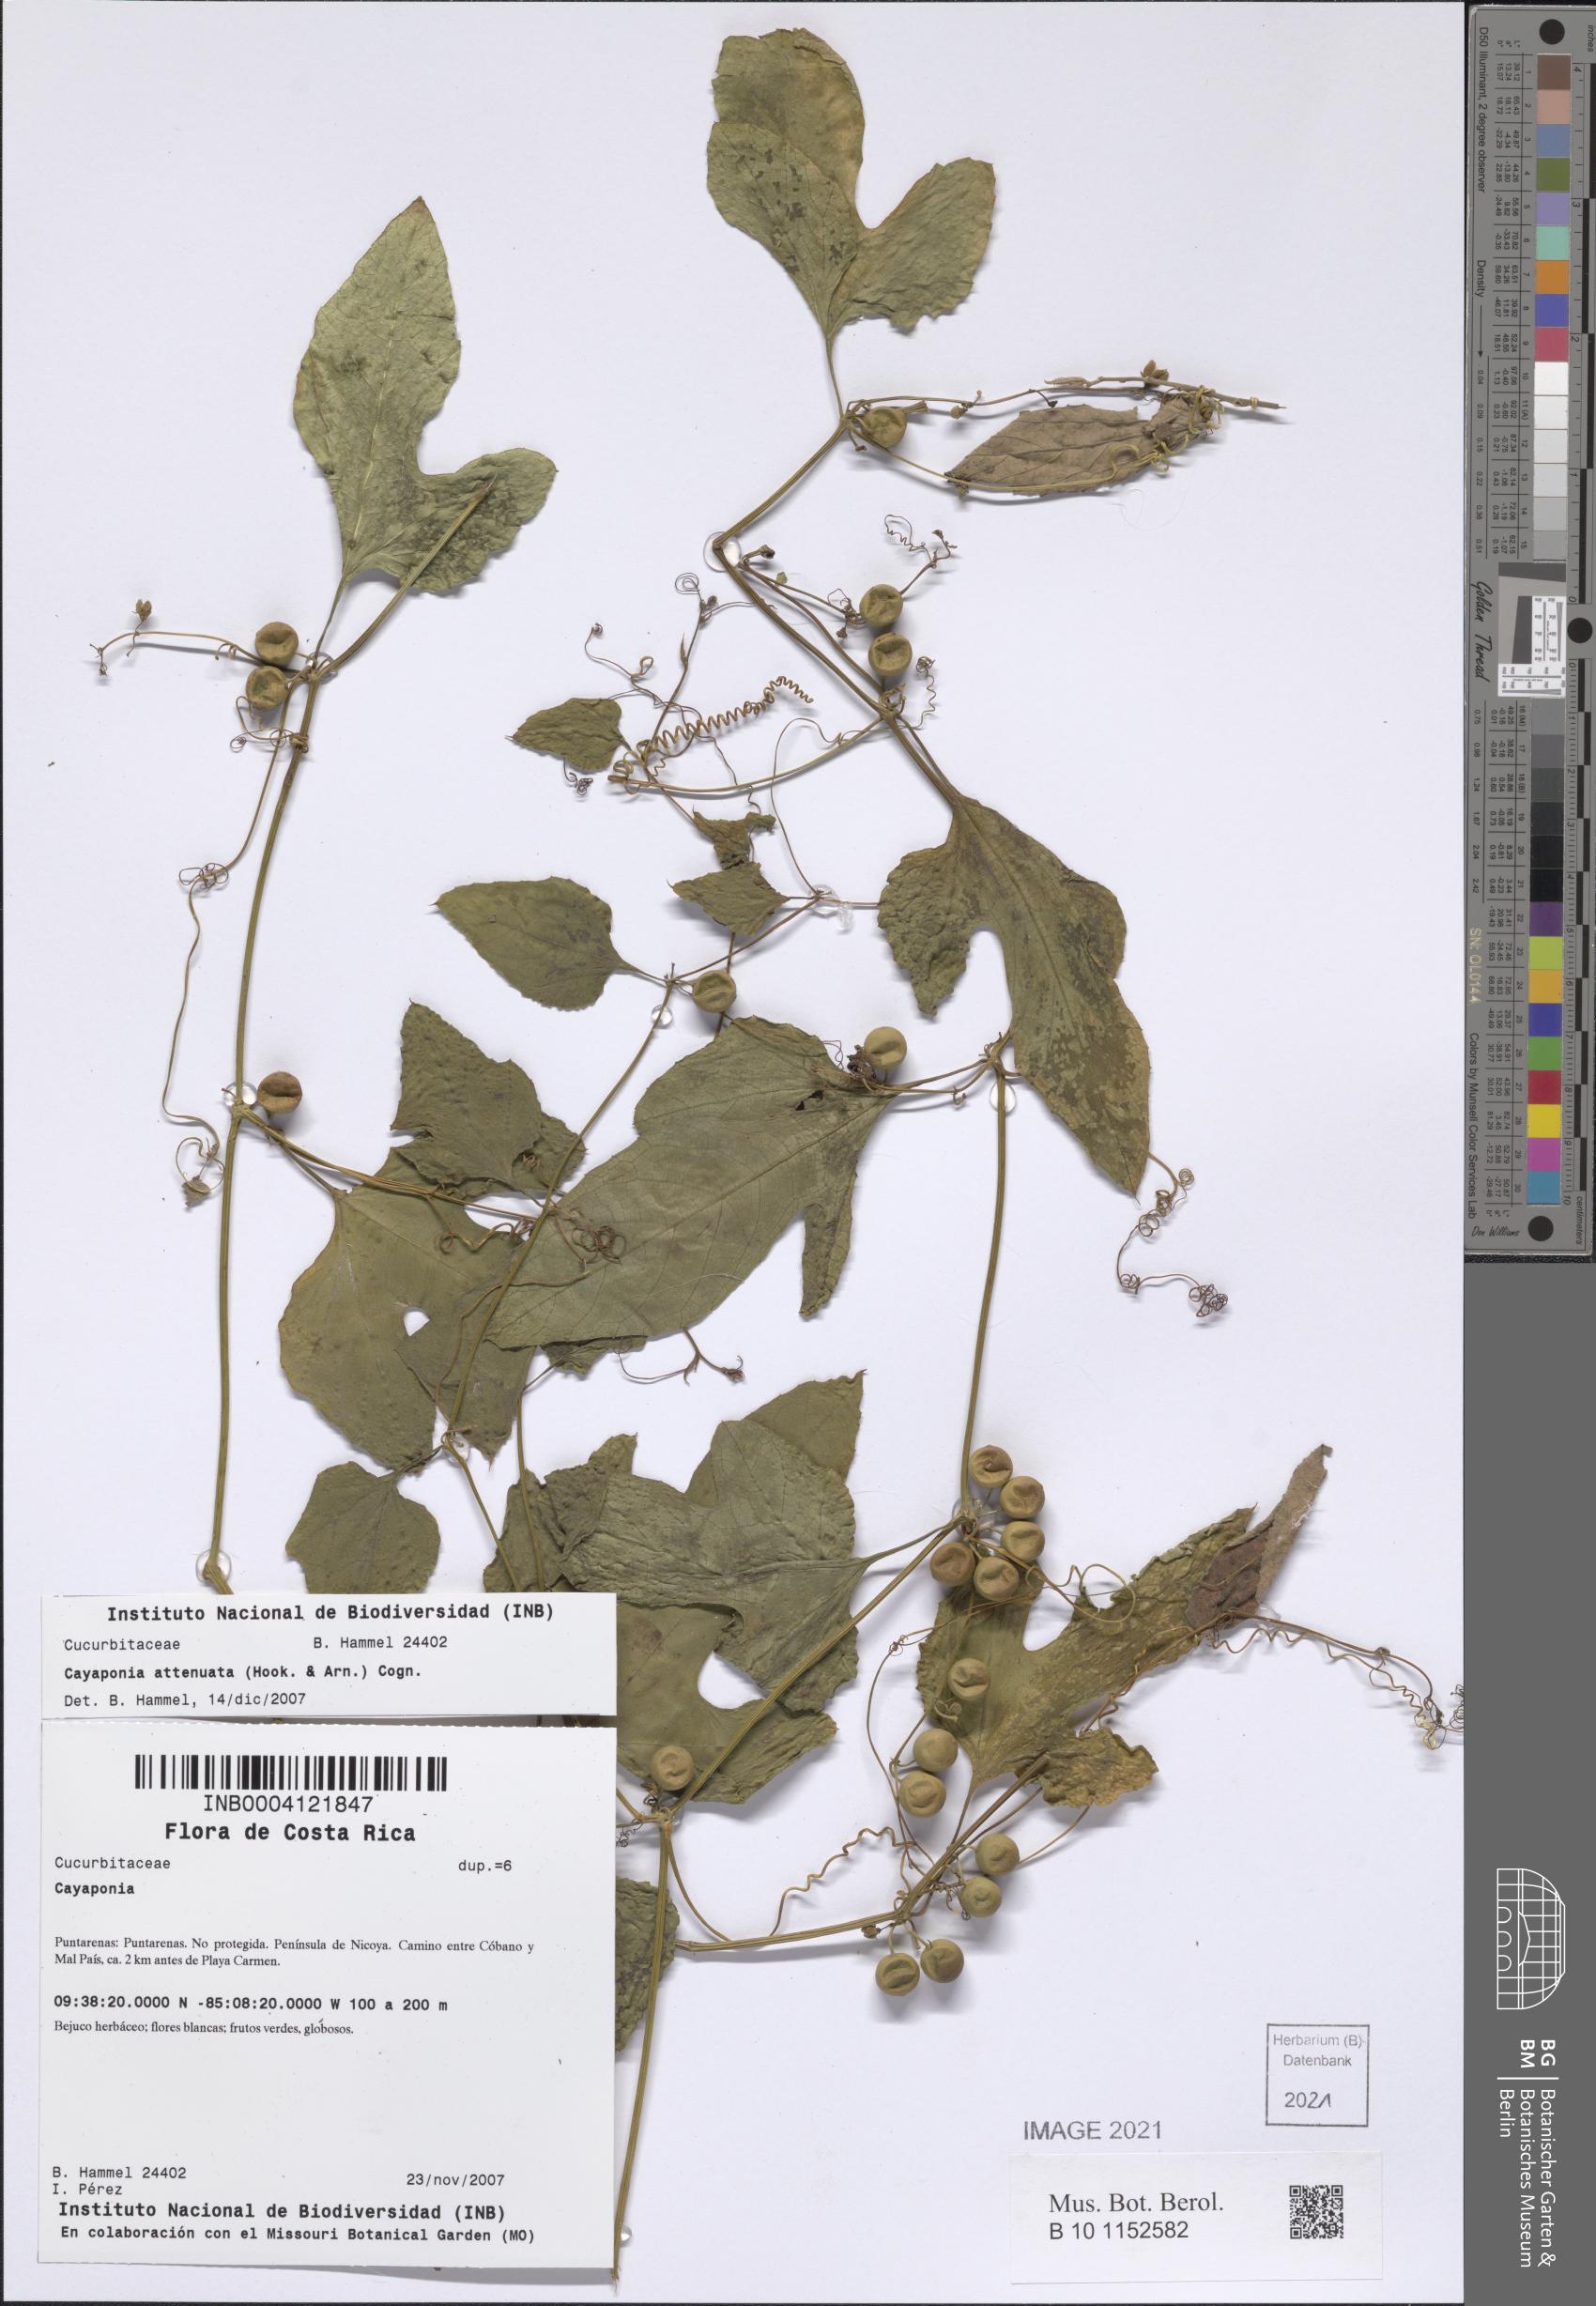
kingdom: Plantae
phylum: Tracheophyta
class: Magnoliopsida
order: Cucurbitales
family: Cucurbitaceae
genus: Cayaponia
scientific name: Cayaponia attenuata
